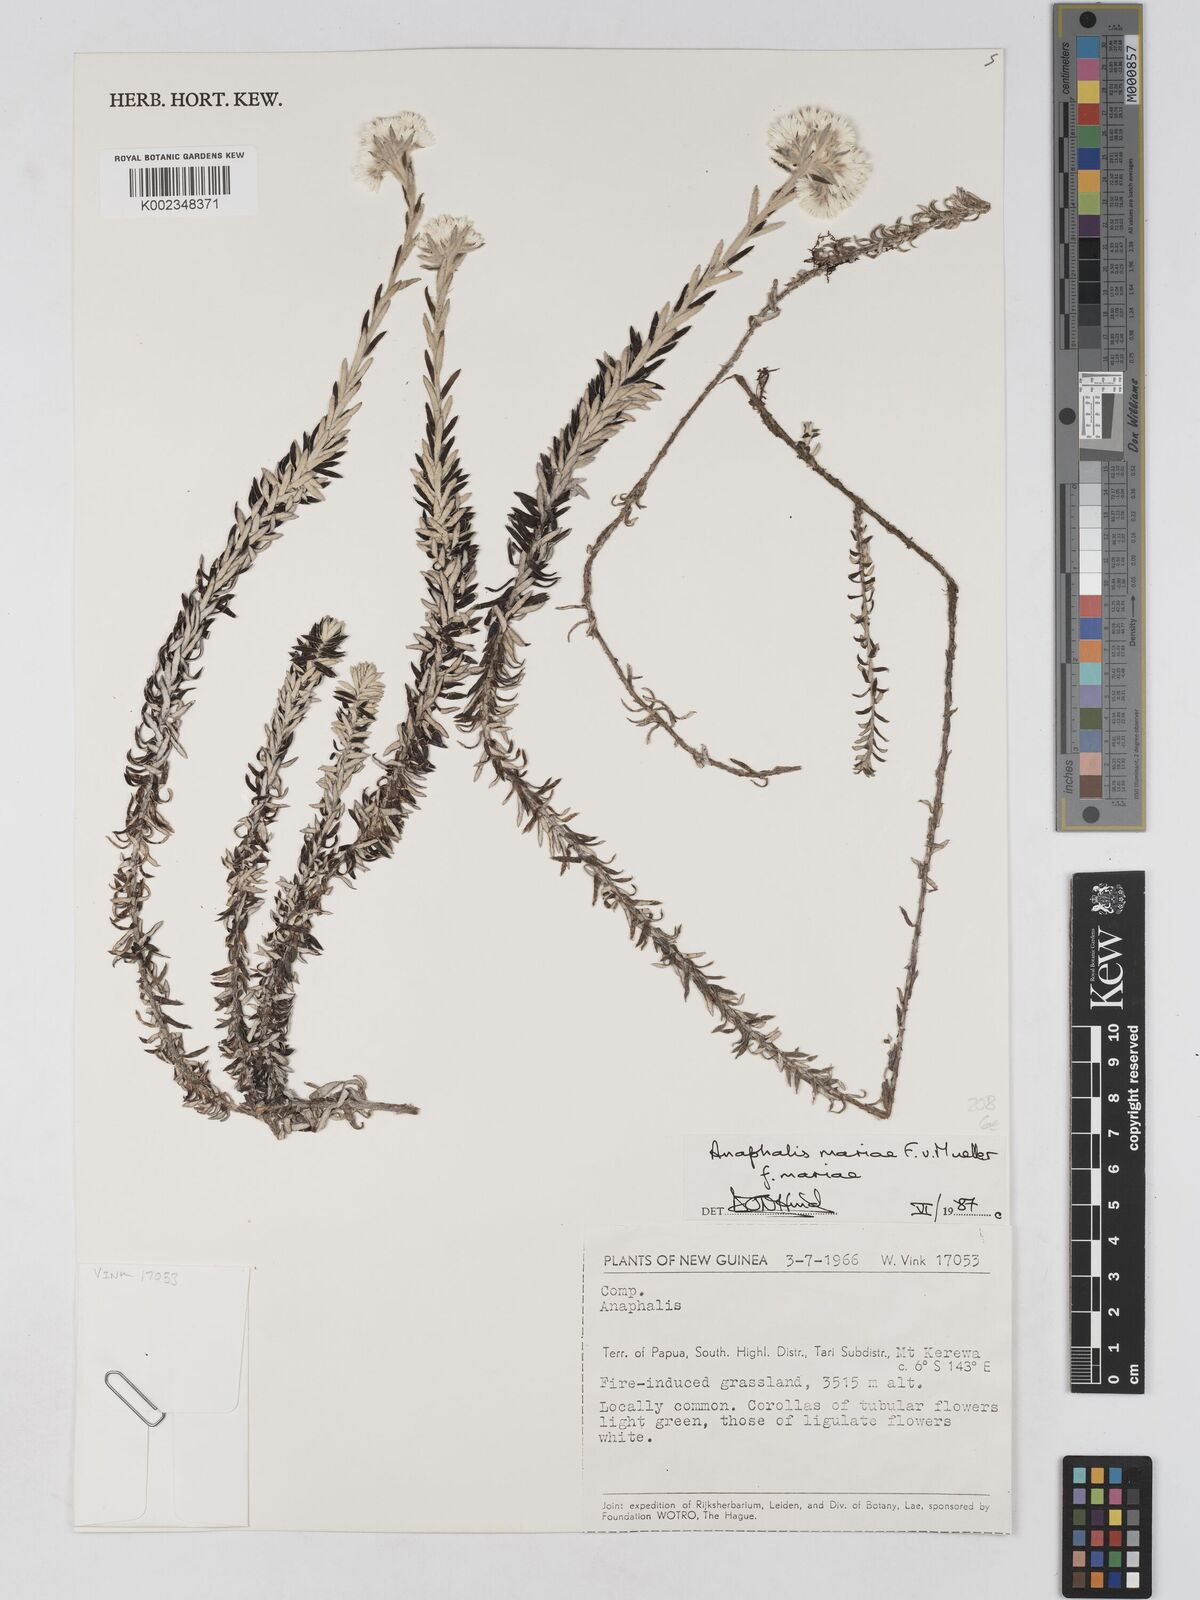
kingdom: Plantae
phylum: Tracheophyta
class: Magnoliopsida
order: Asterales
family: Asteraceae
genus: Anaphalioides
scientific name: Anaphalioides mariae
